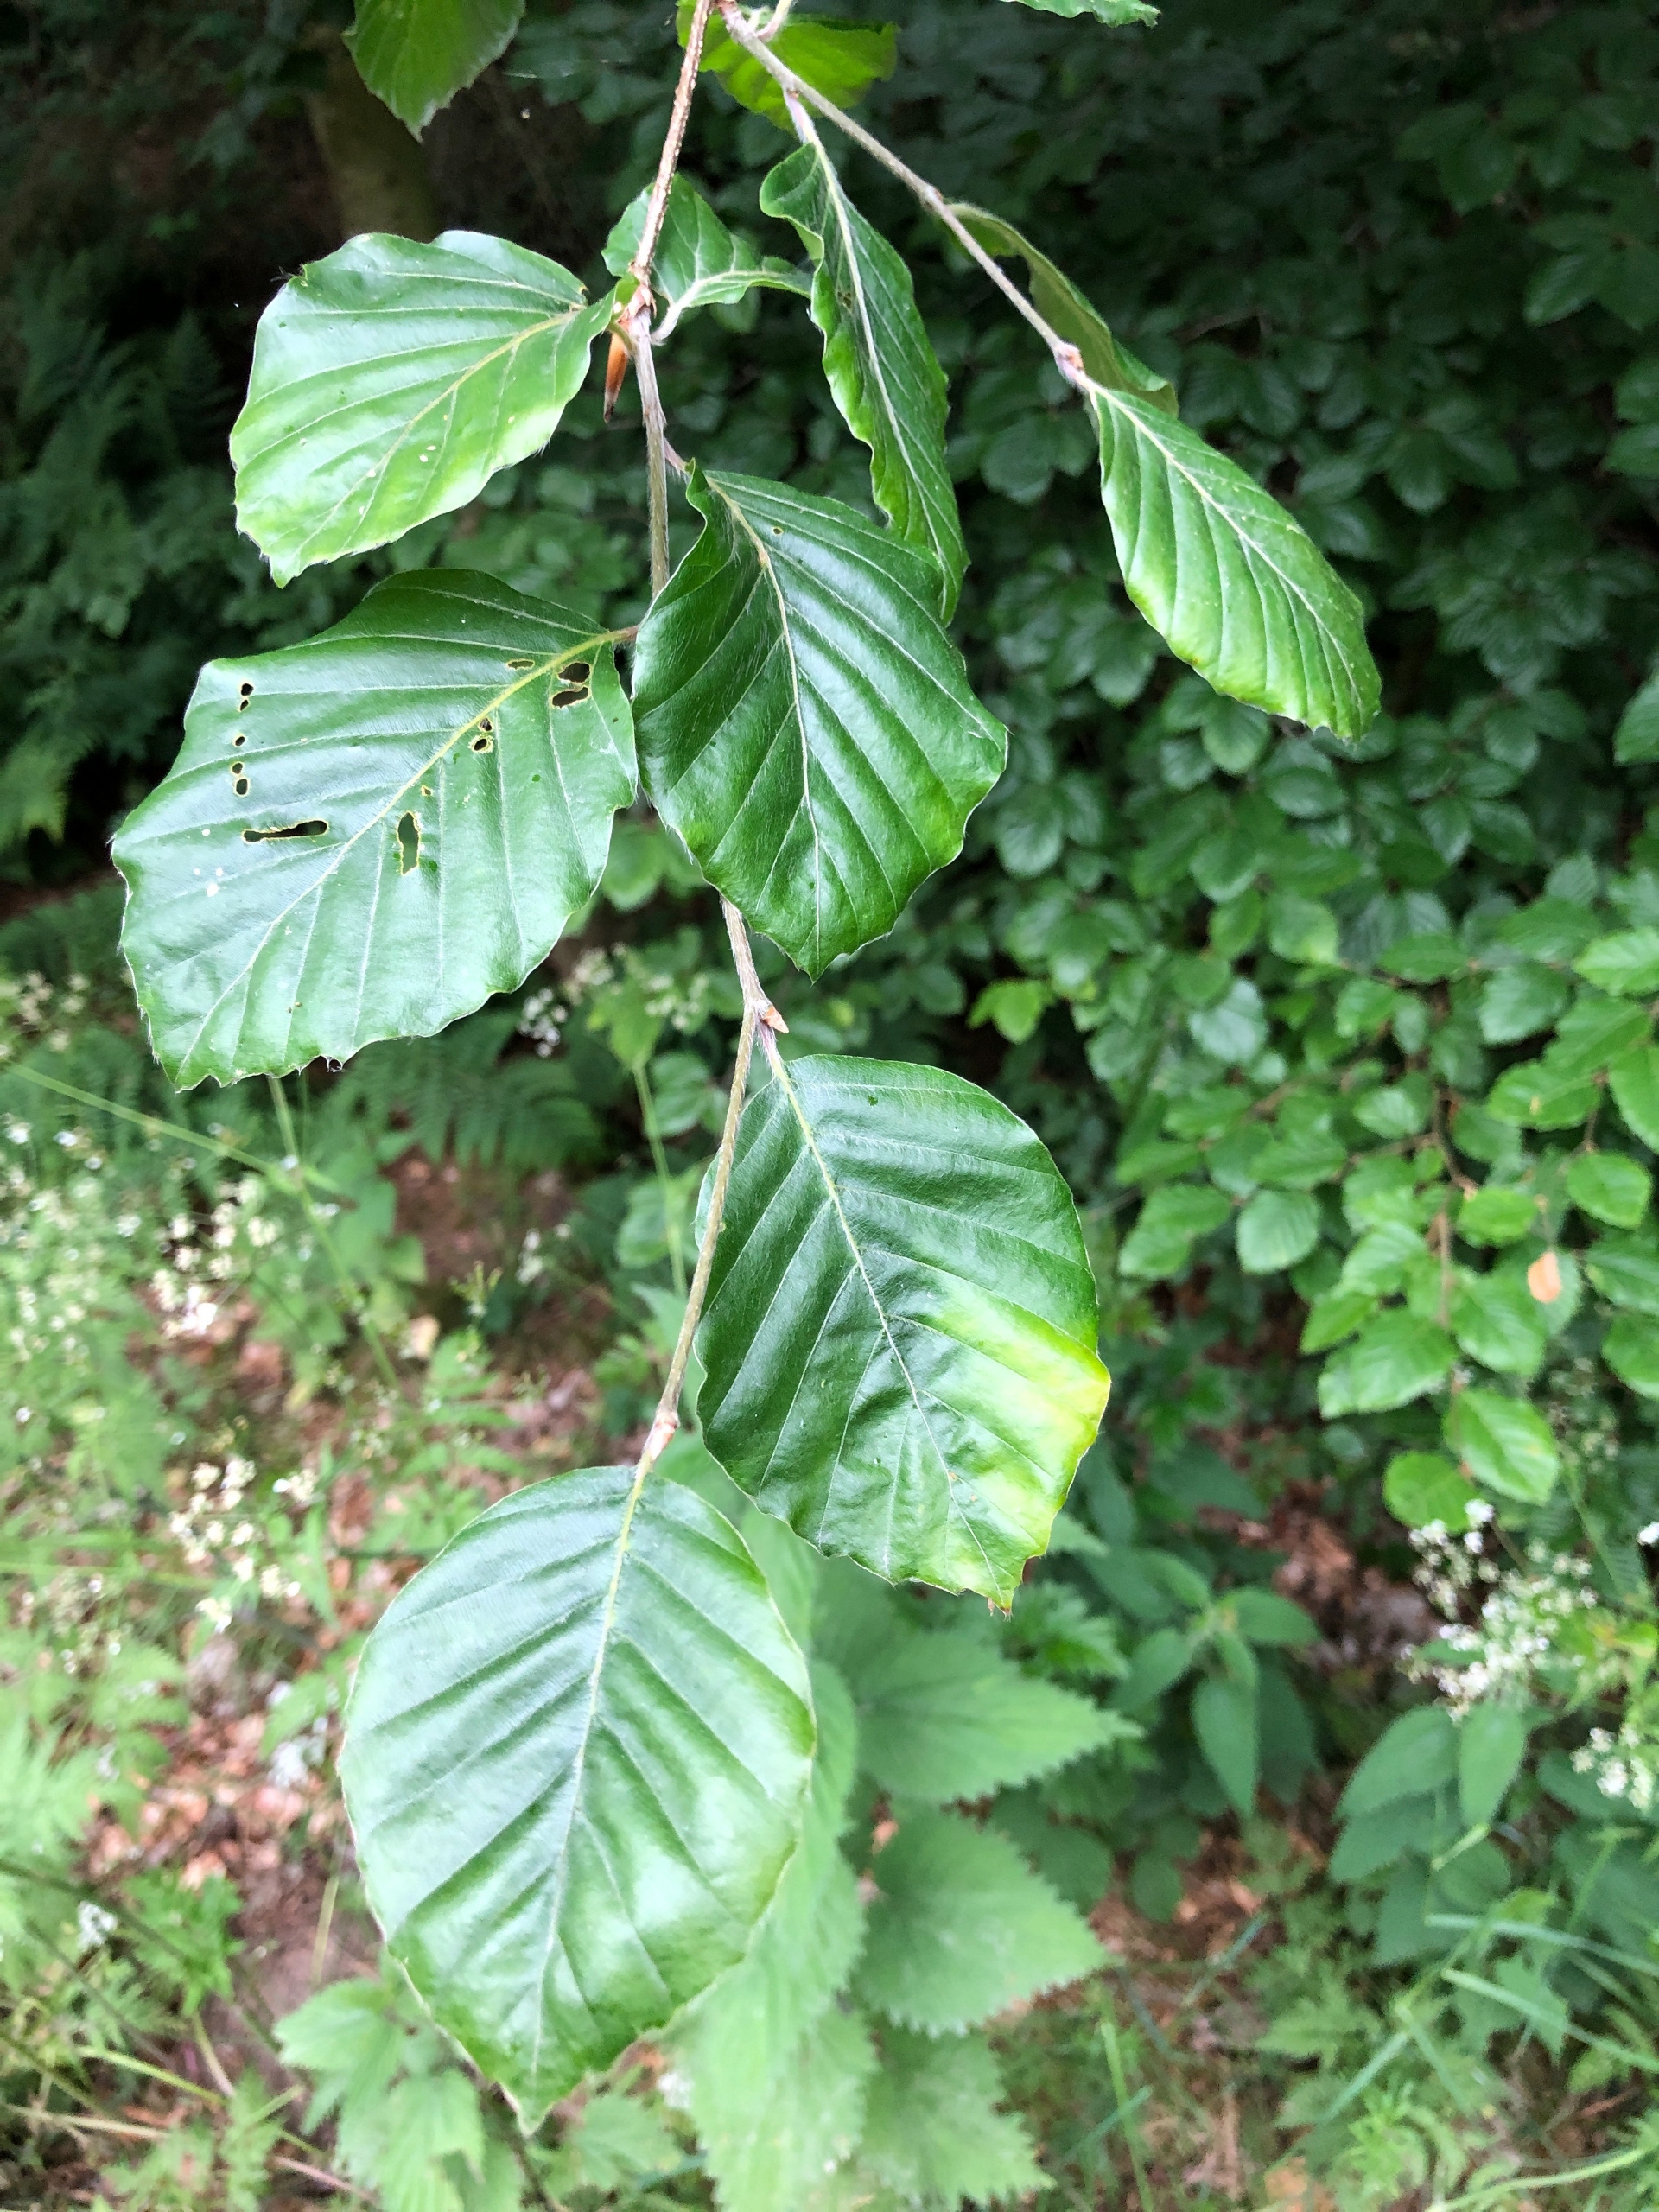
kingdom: Plantae
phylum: Tracheophyta
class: Magnoliopsida
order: Fagales
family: Fagaceae
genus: Fagus
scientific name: Fagus sylvatica
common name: Bøg
